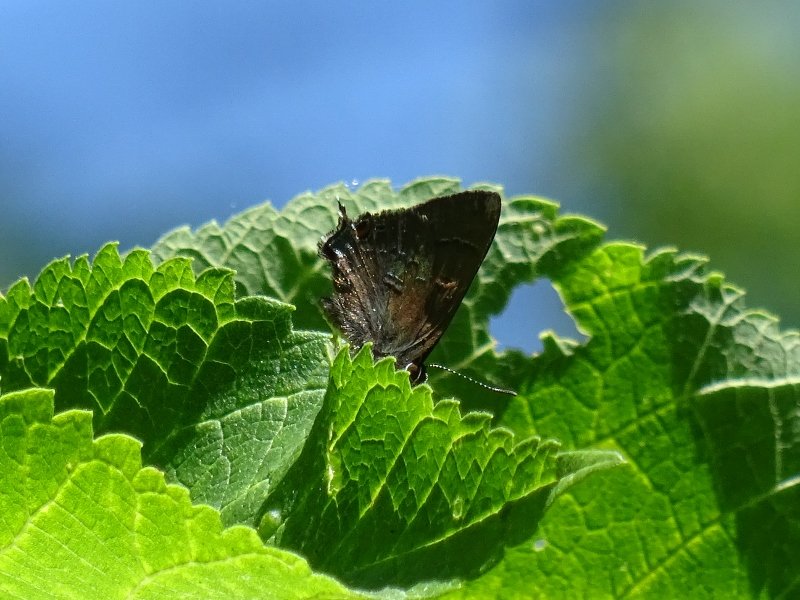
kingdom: Animalia
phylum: Arthropoda
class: Insecta
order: Lepidoptera
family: Lycaenidae
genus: Satyrium
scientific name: Satyrium
